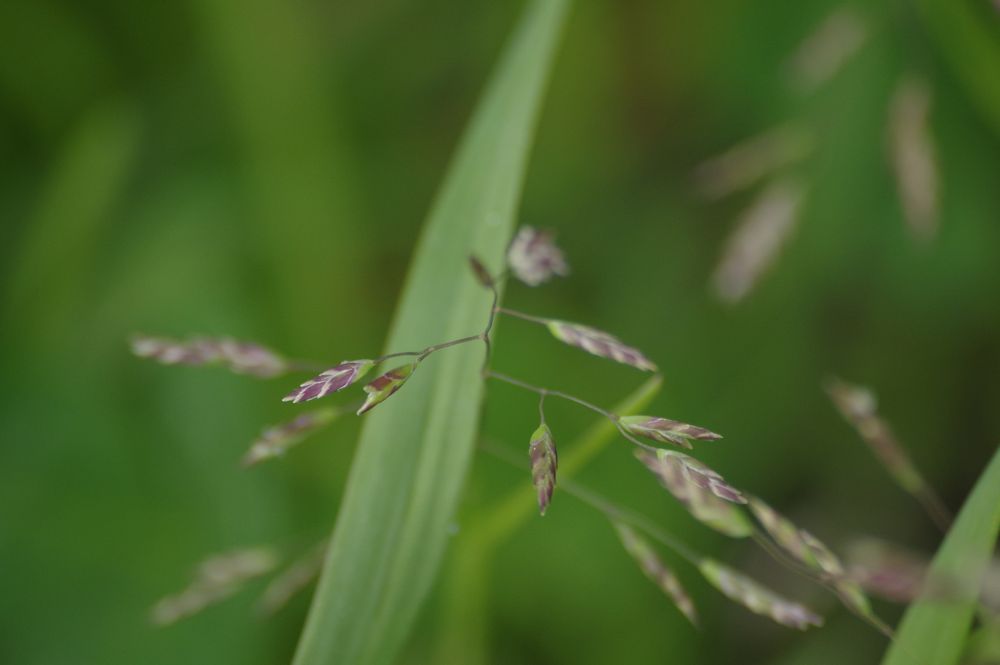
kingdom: Plantae
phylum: Tracheophyta
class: Liliopsida
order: Poales
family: Poaceae
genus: Poa
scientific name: Poa supina
